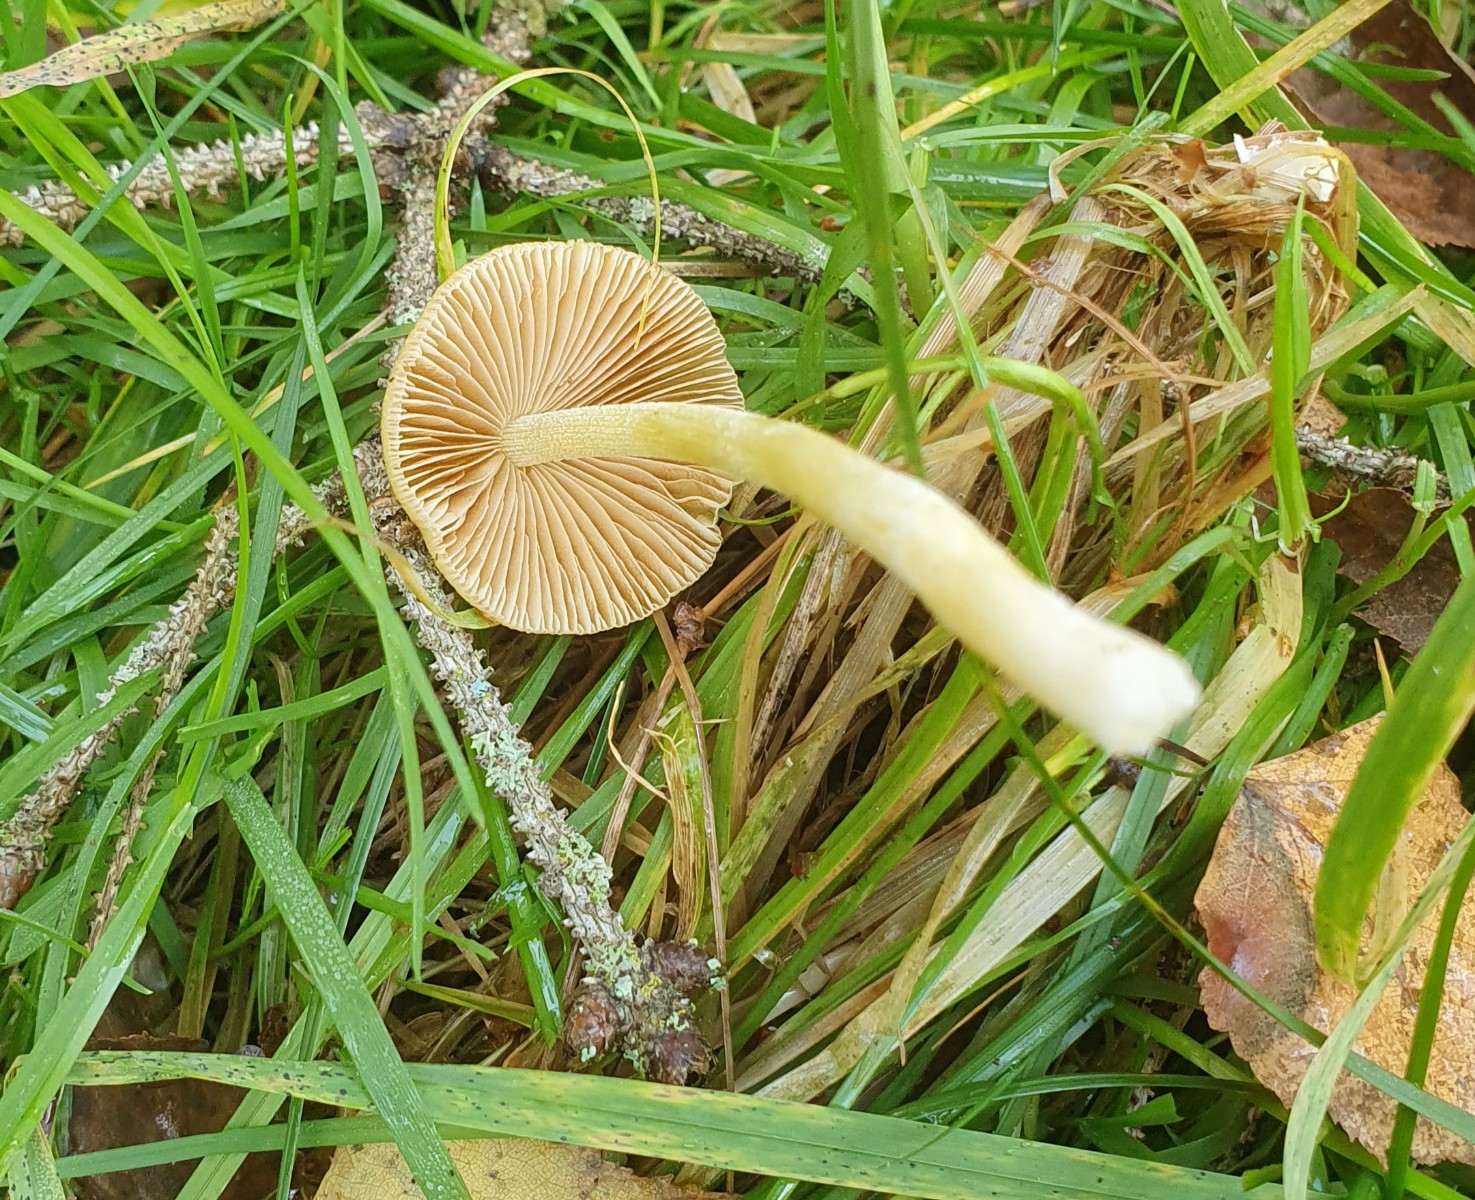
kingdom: Fungi
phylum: Basidiomycota
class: Agaricomycetes
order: Agaricales
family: Bolbitiaceae
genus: Bolbitius
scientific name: Bolbitius titubans
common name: almindelig gulhat
